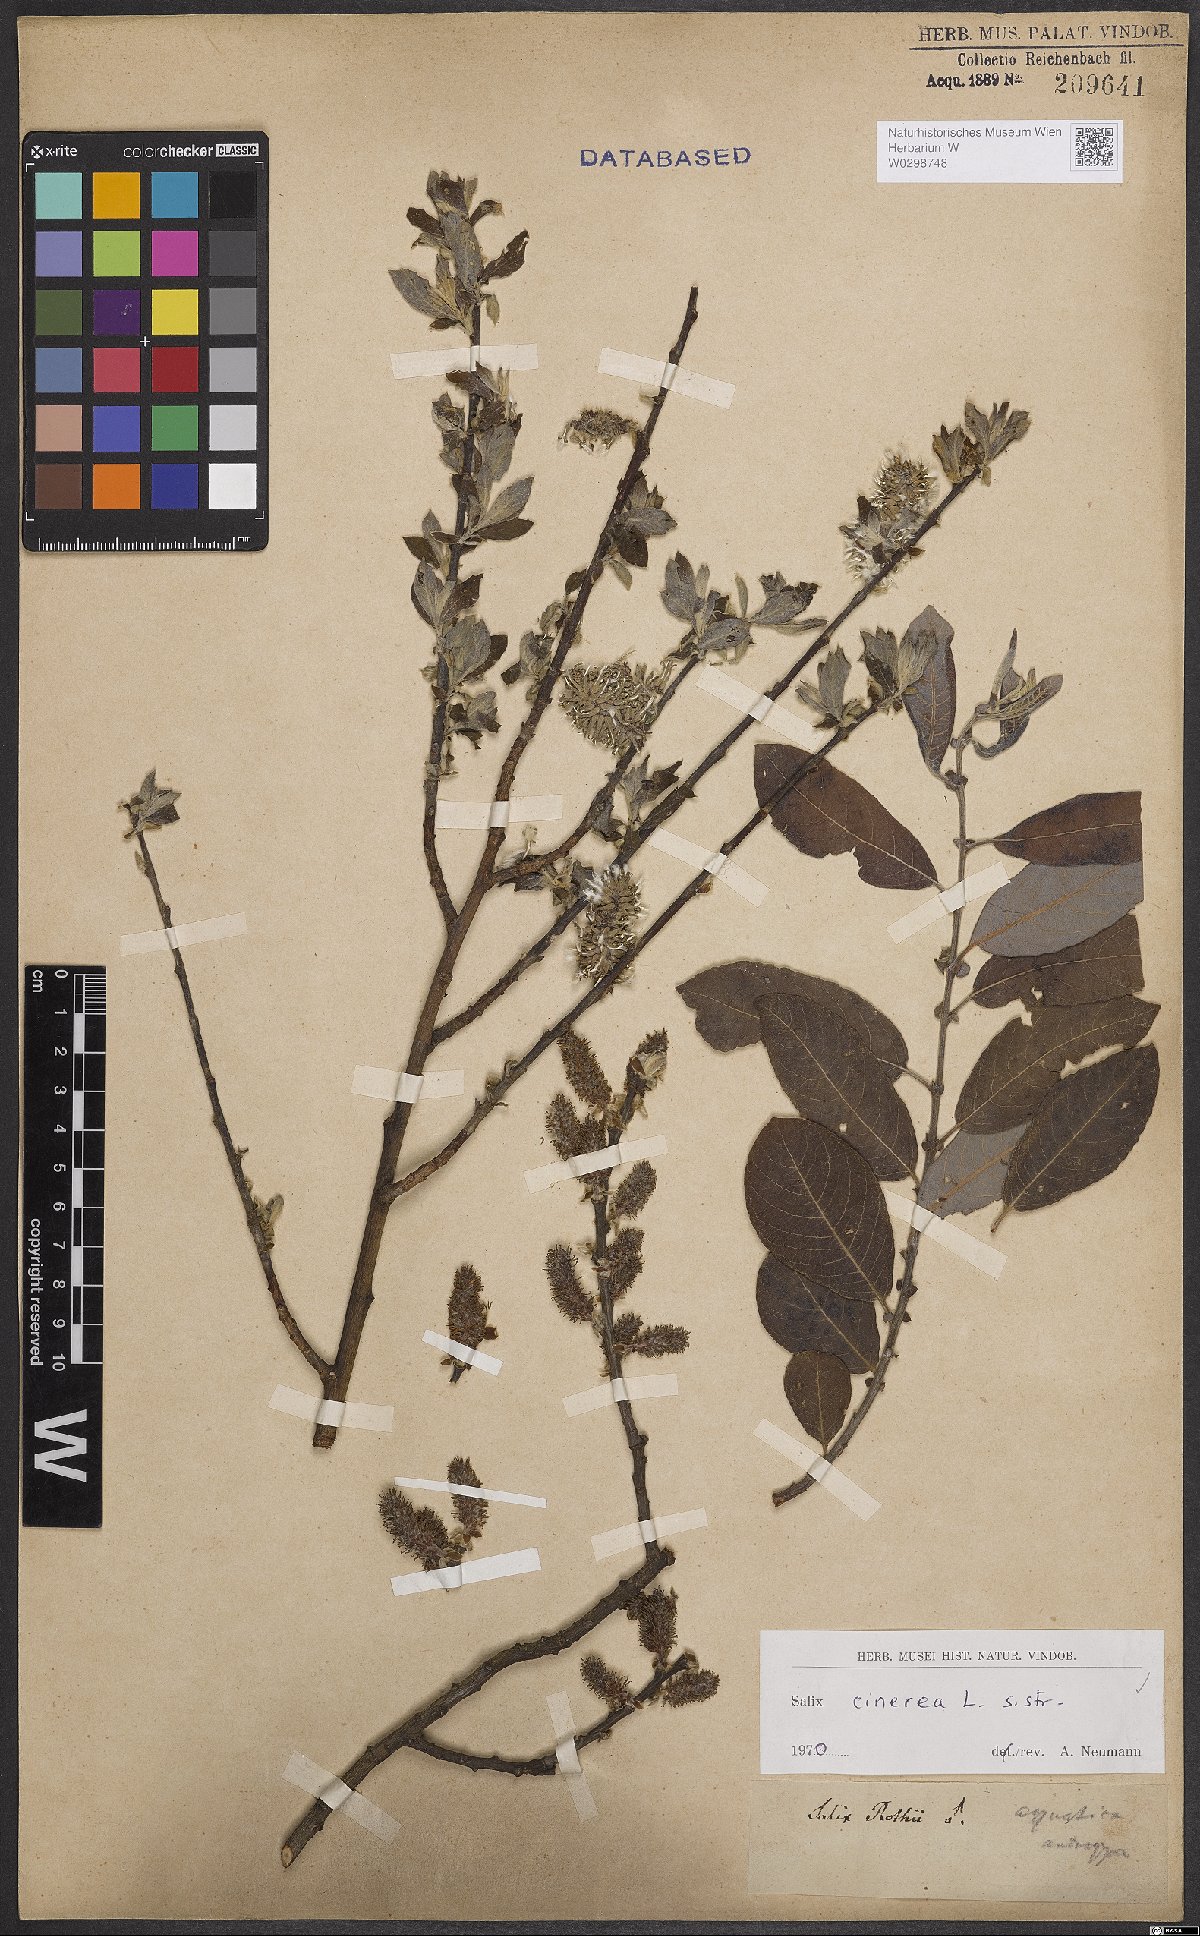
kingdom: Plantae
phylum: Tracheophyta
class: Magnoliopsida
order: Malpighiales
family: Salicaceae
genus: Salix
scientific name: Salix cinerea
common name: Common sallow
